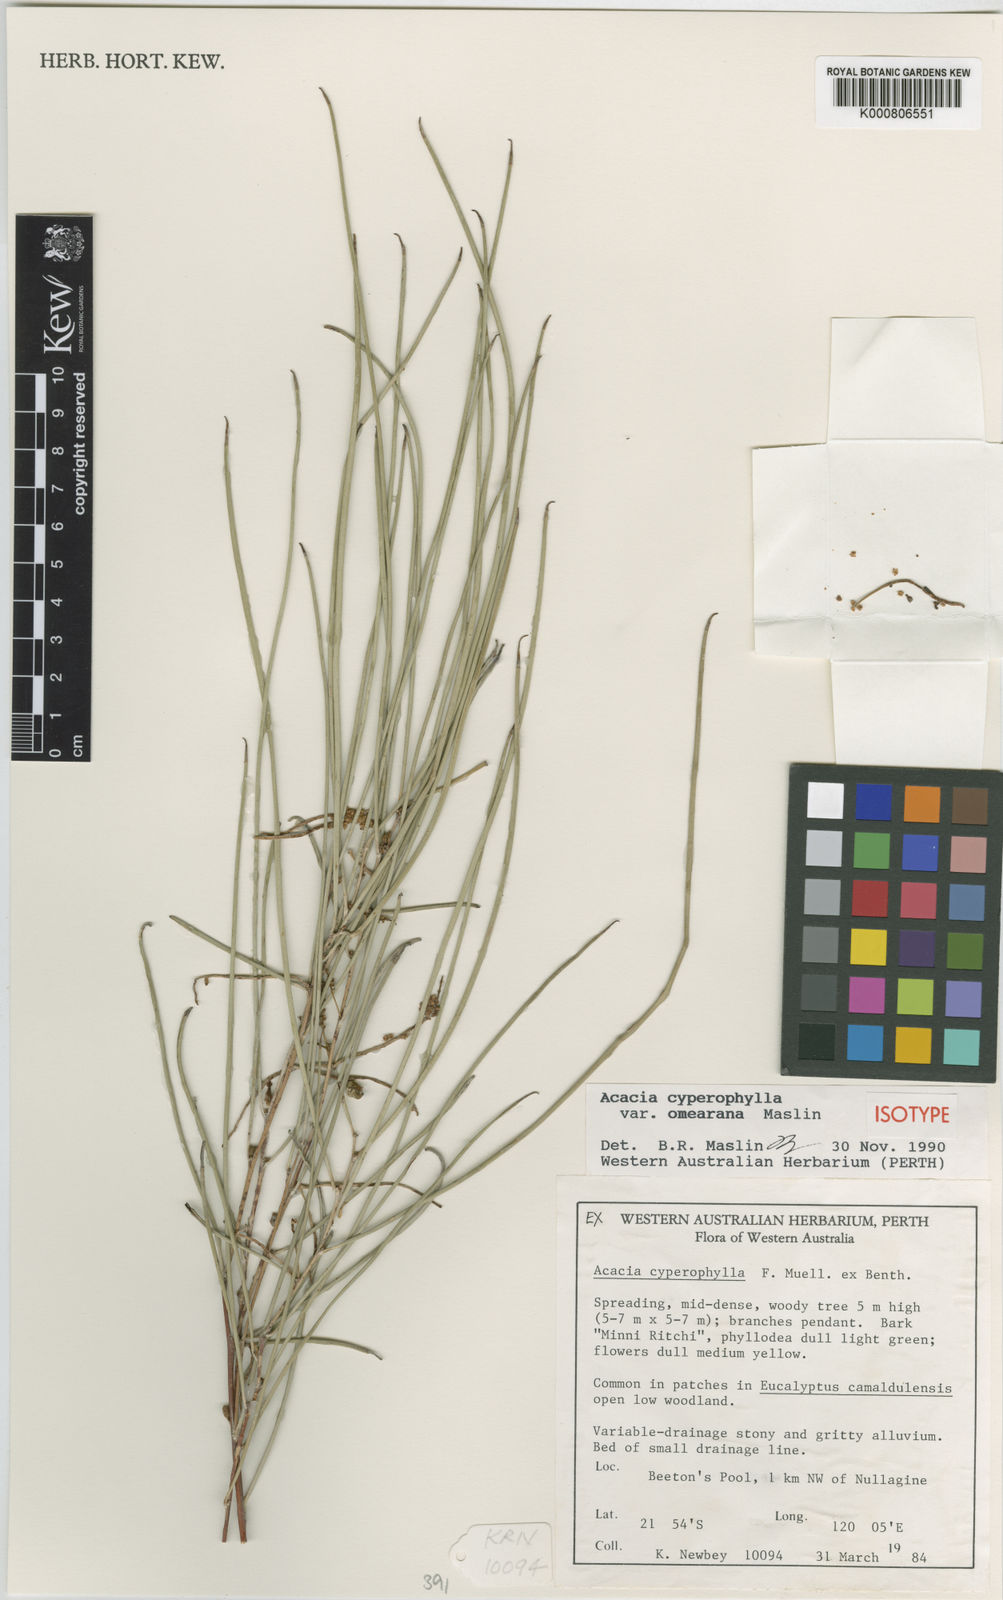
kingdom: Plantae
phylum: Tracheophyta
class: Magnoliopsida
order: Fabales
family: Fabaceae
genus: Acacia
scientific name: Acacia cyperophylla
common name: Red mulga
